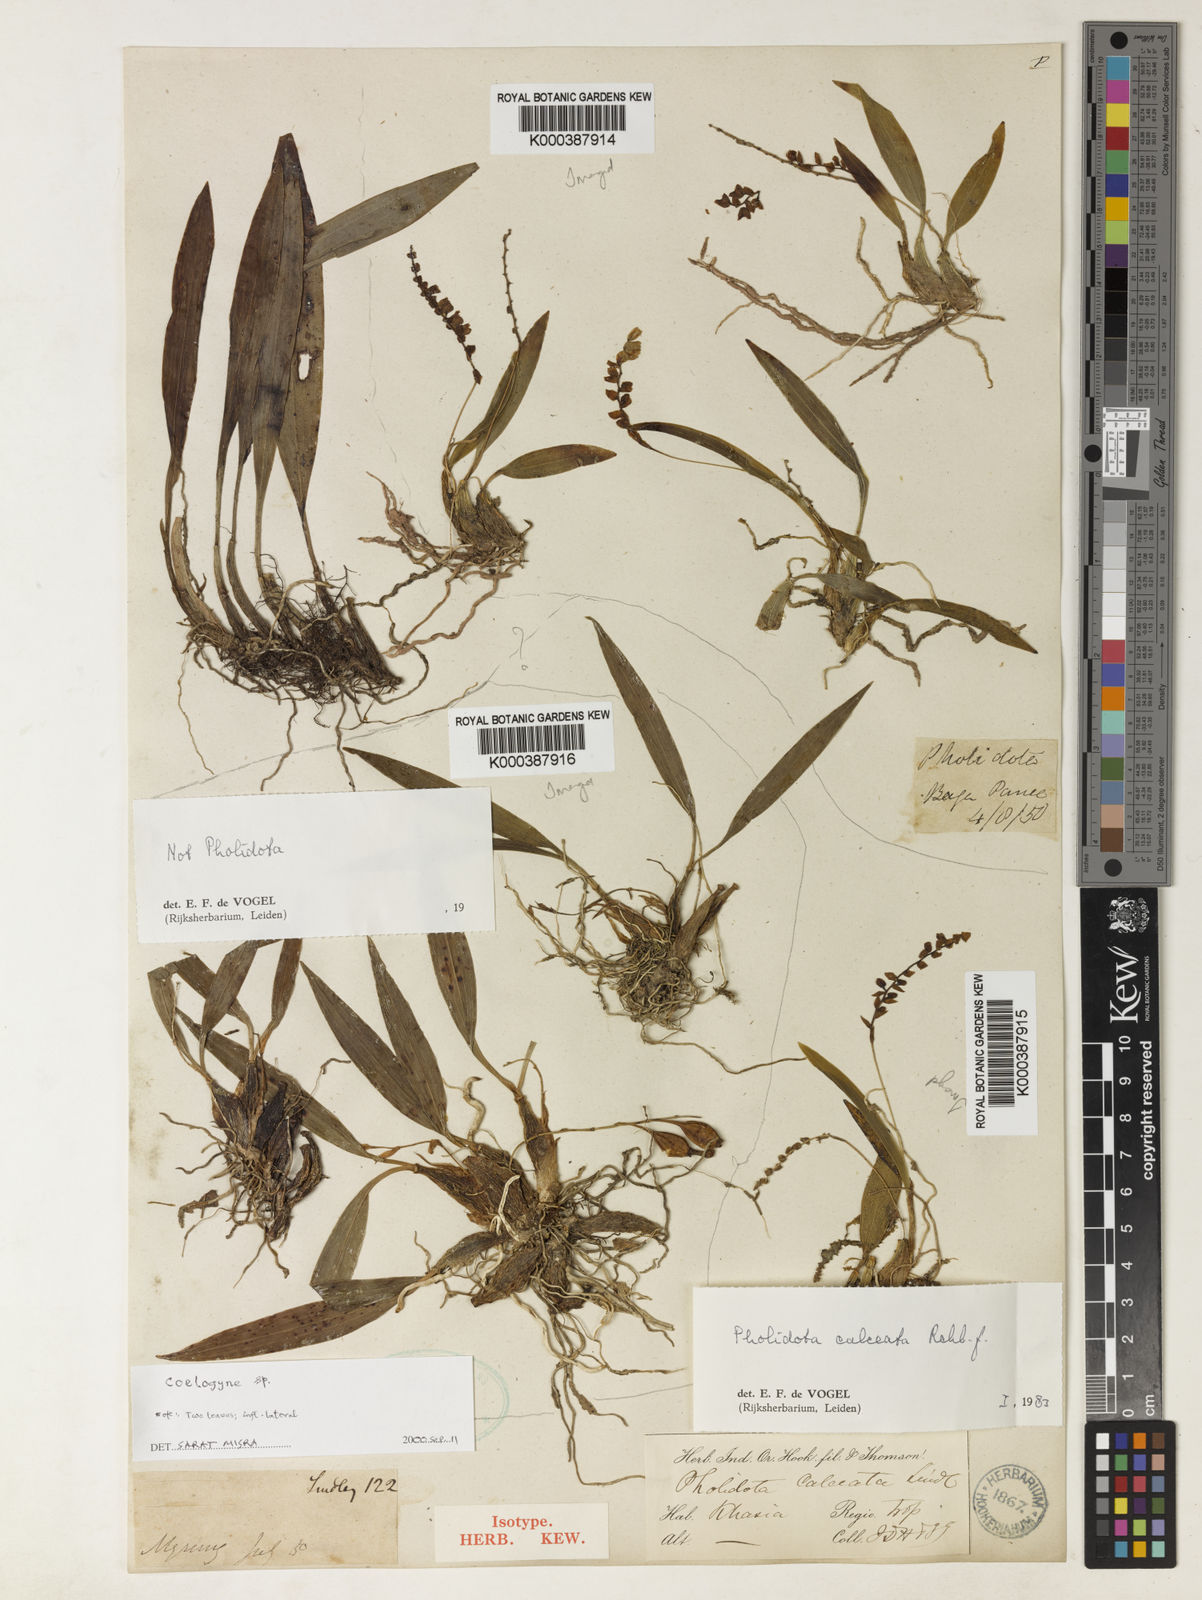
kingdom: Plantae
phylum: Tracheophyta
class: Liliopsida
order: Asparagales
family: Orchidaceae
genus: Coelogyne
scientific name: Coelogyne pallida
